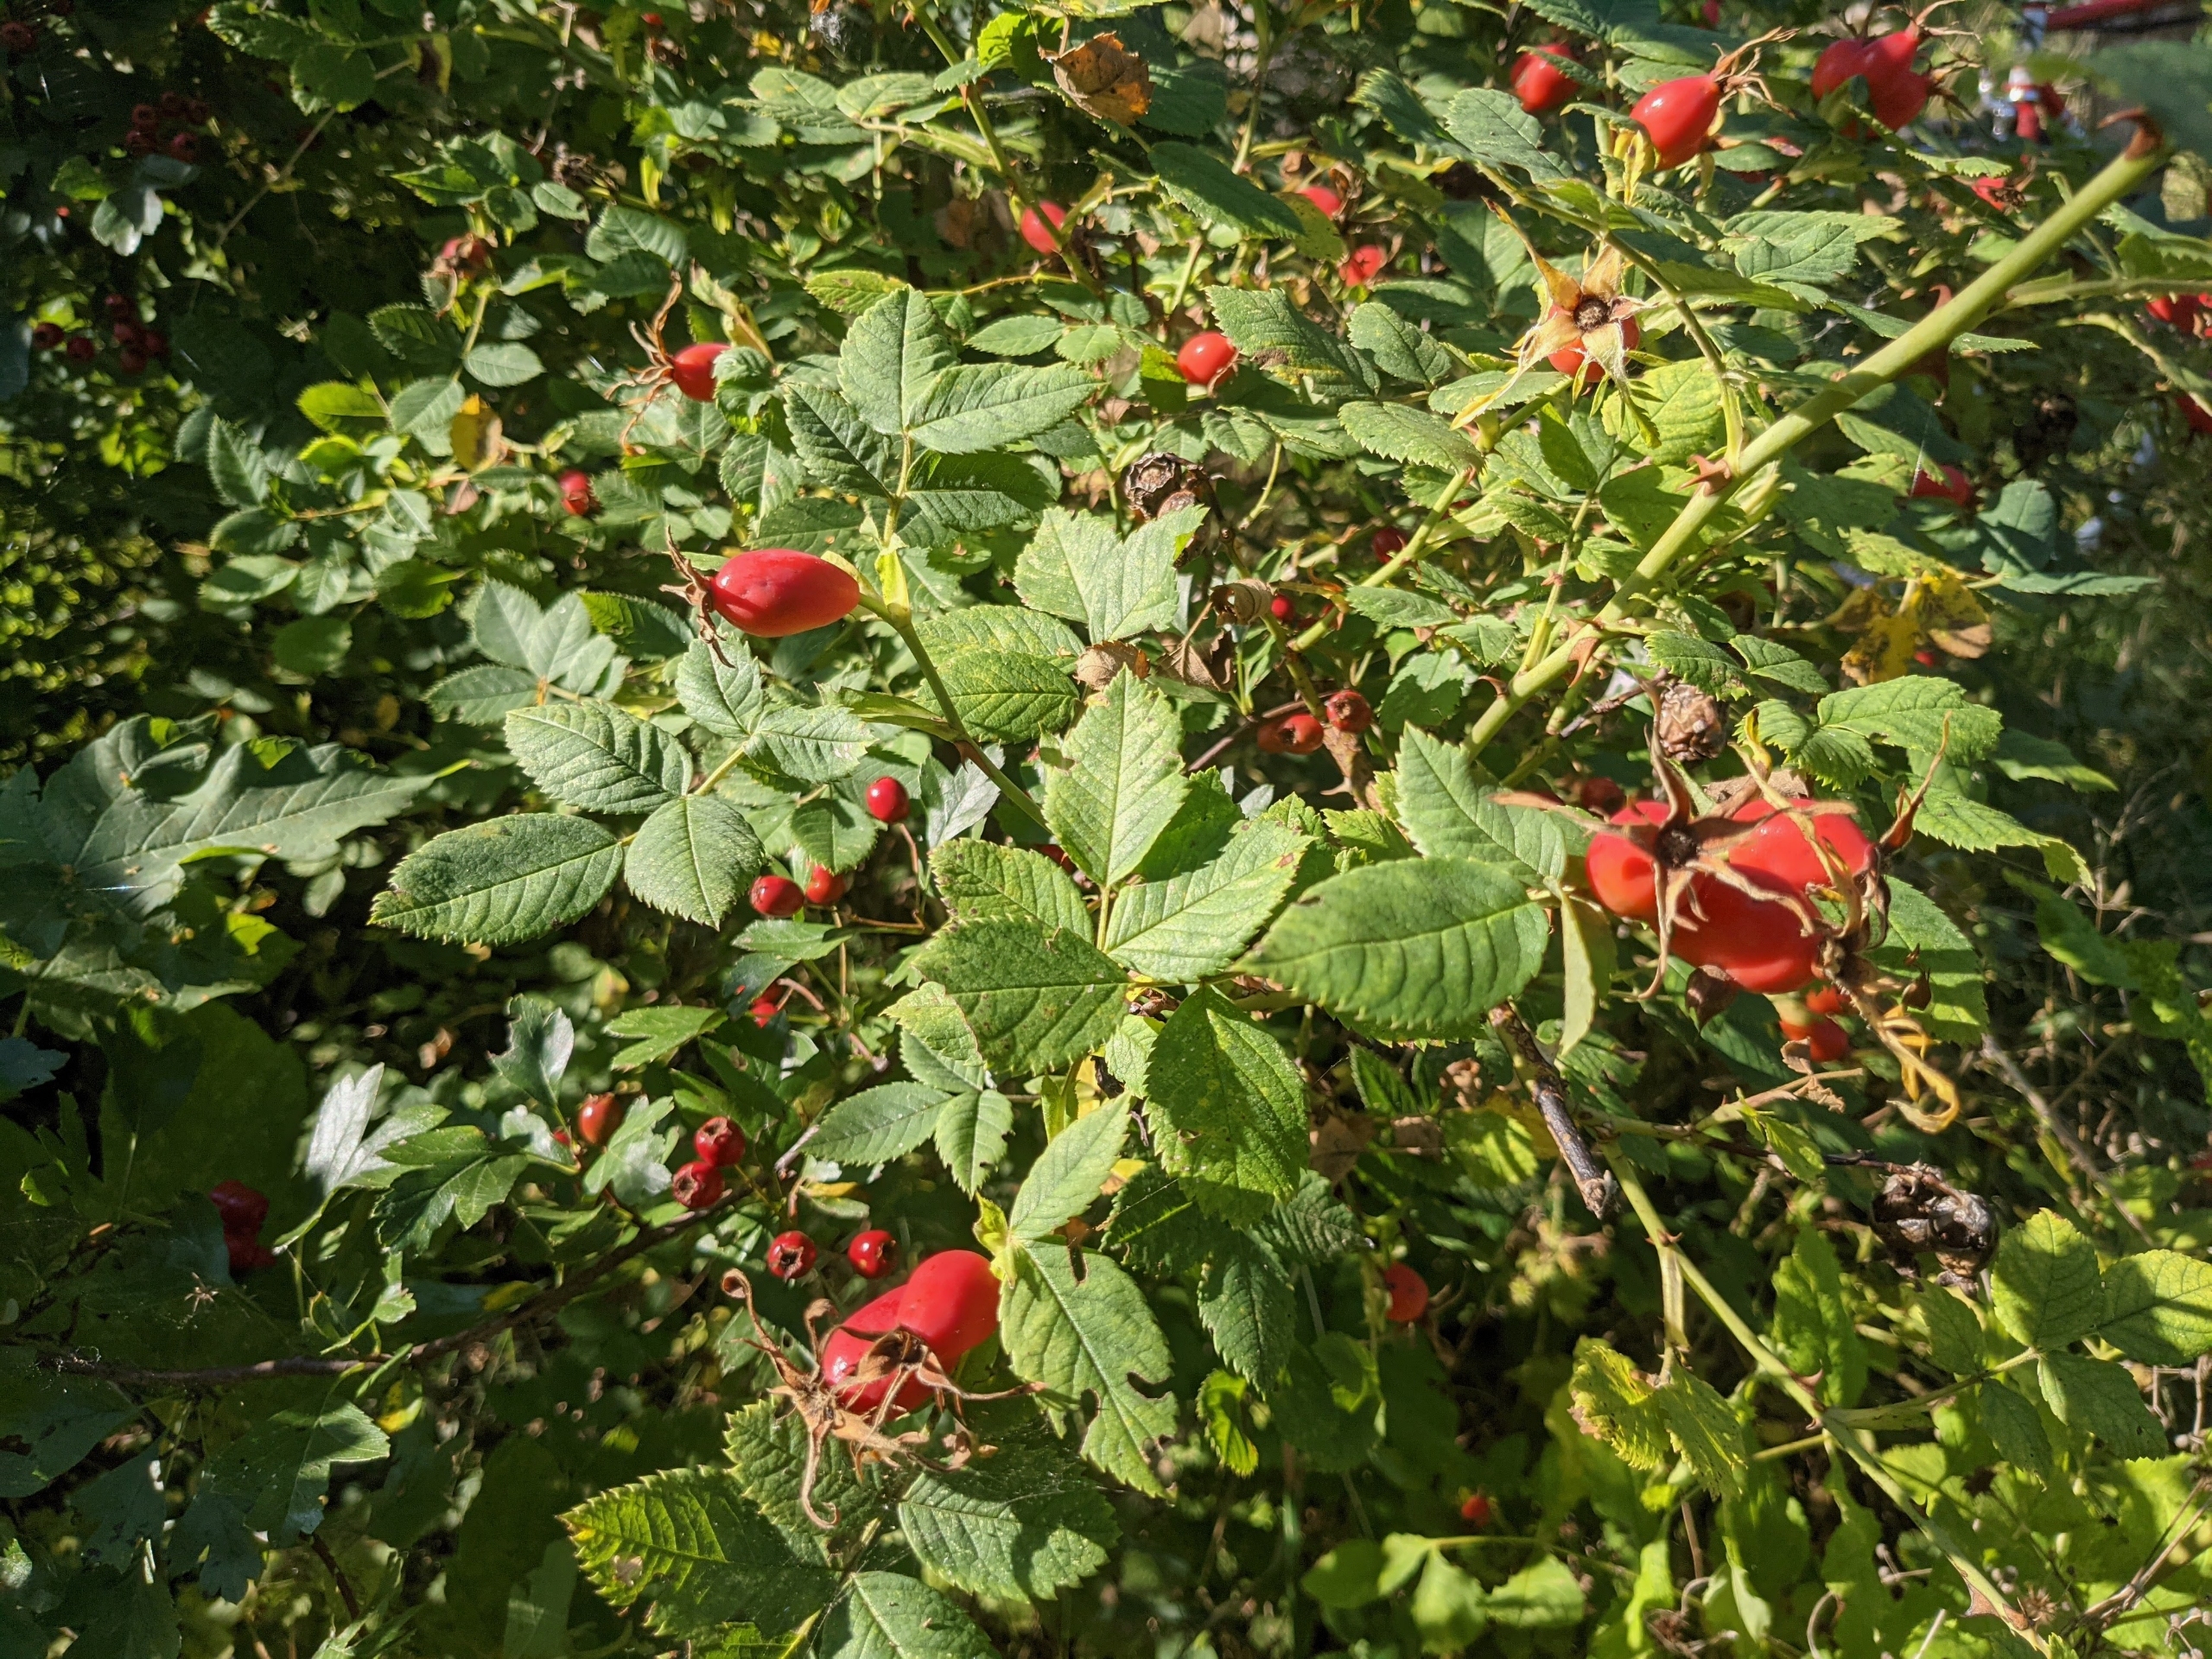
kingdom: Plantae
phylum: Tracheophyta
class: Magnoliopsida
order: Rosales
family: Rosaceae
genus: Rosa
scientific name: Rosa caesia
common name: Håret blågrøn rose
